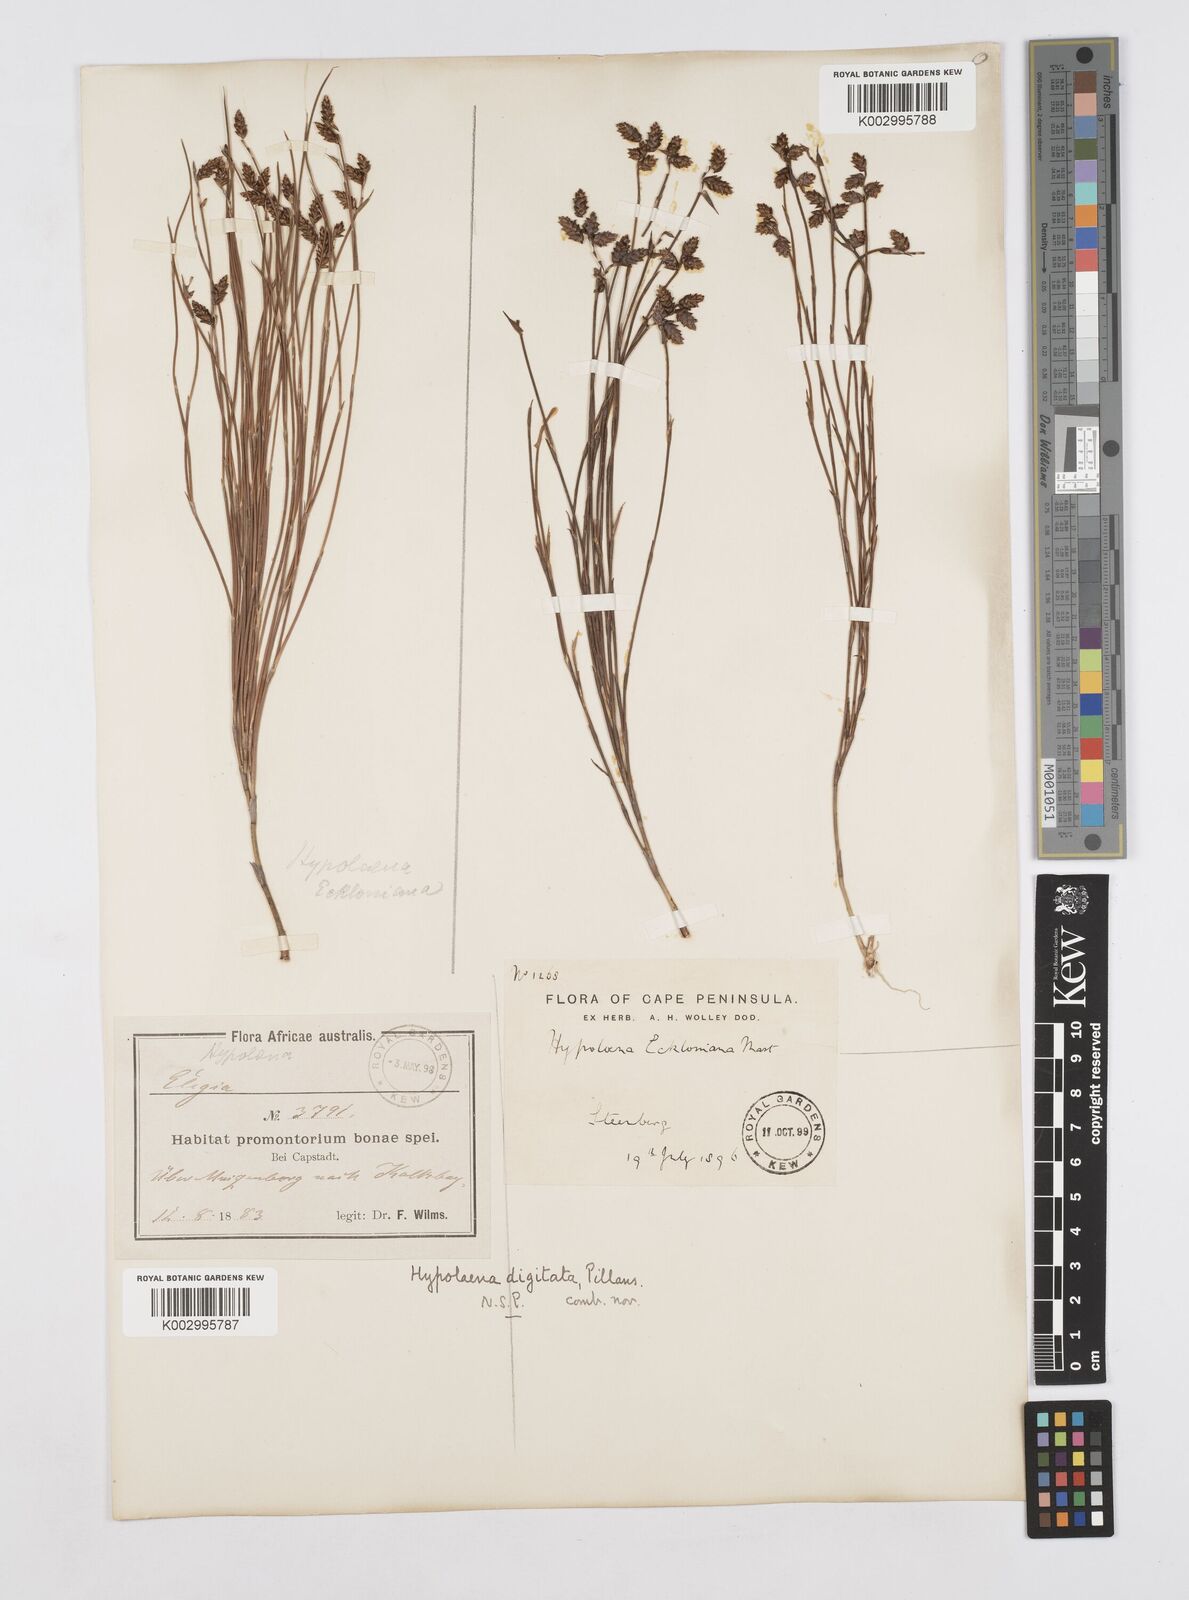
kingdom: Plantae
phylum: Tracheophyta
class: Liliopsida
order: Poales
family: Restionaceae
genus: Mastersiella
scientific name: Mastersiella digitata
